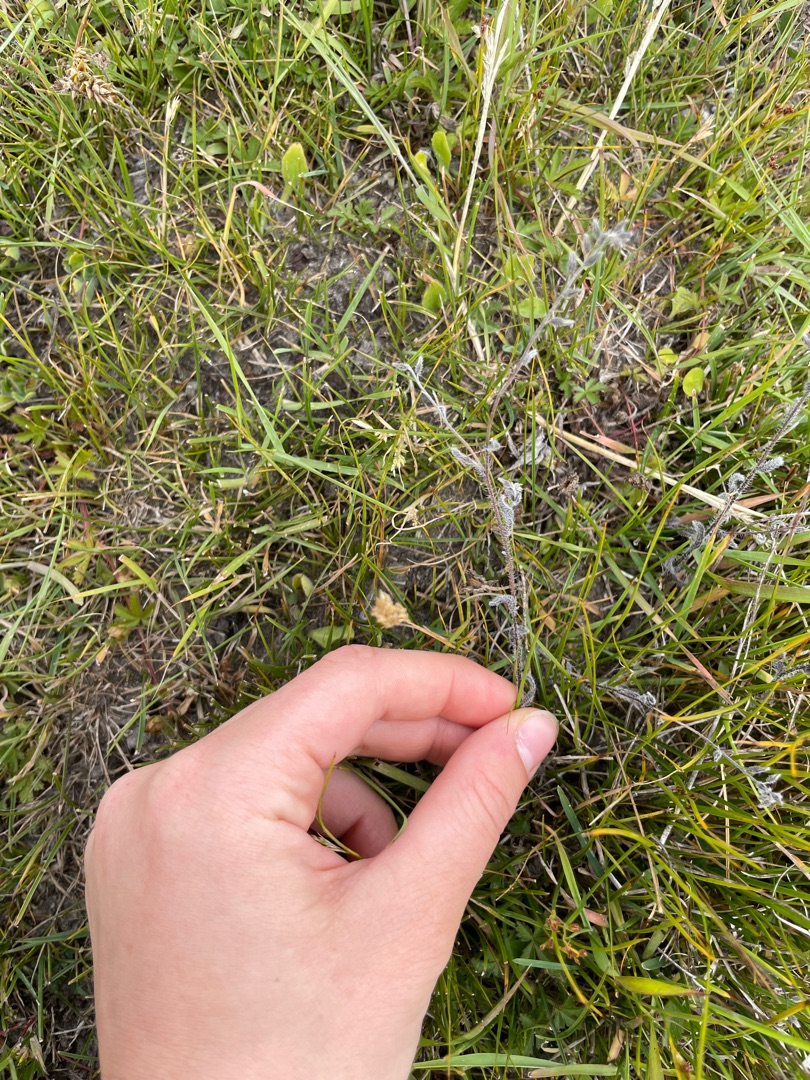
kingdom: Plantae
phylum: Tracheophyta
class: Magnoliopsida
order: Boraginales
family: Boraginaceae
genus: Myosotis
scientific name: Myosotis discolor
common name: Forskelligfarvet forglemmigej
